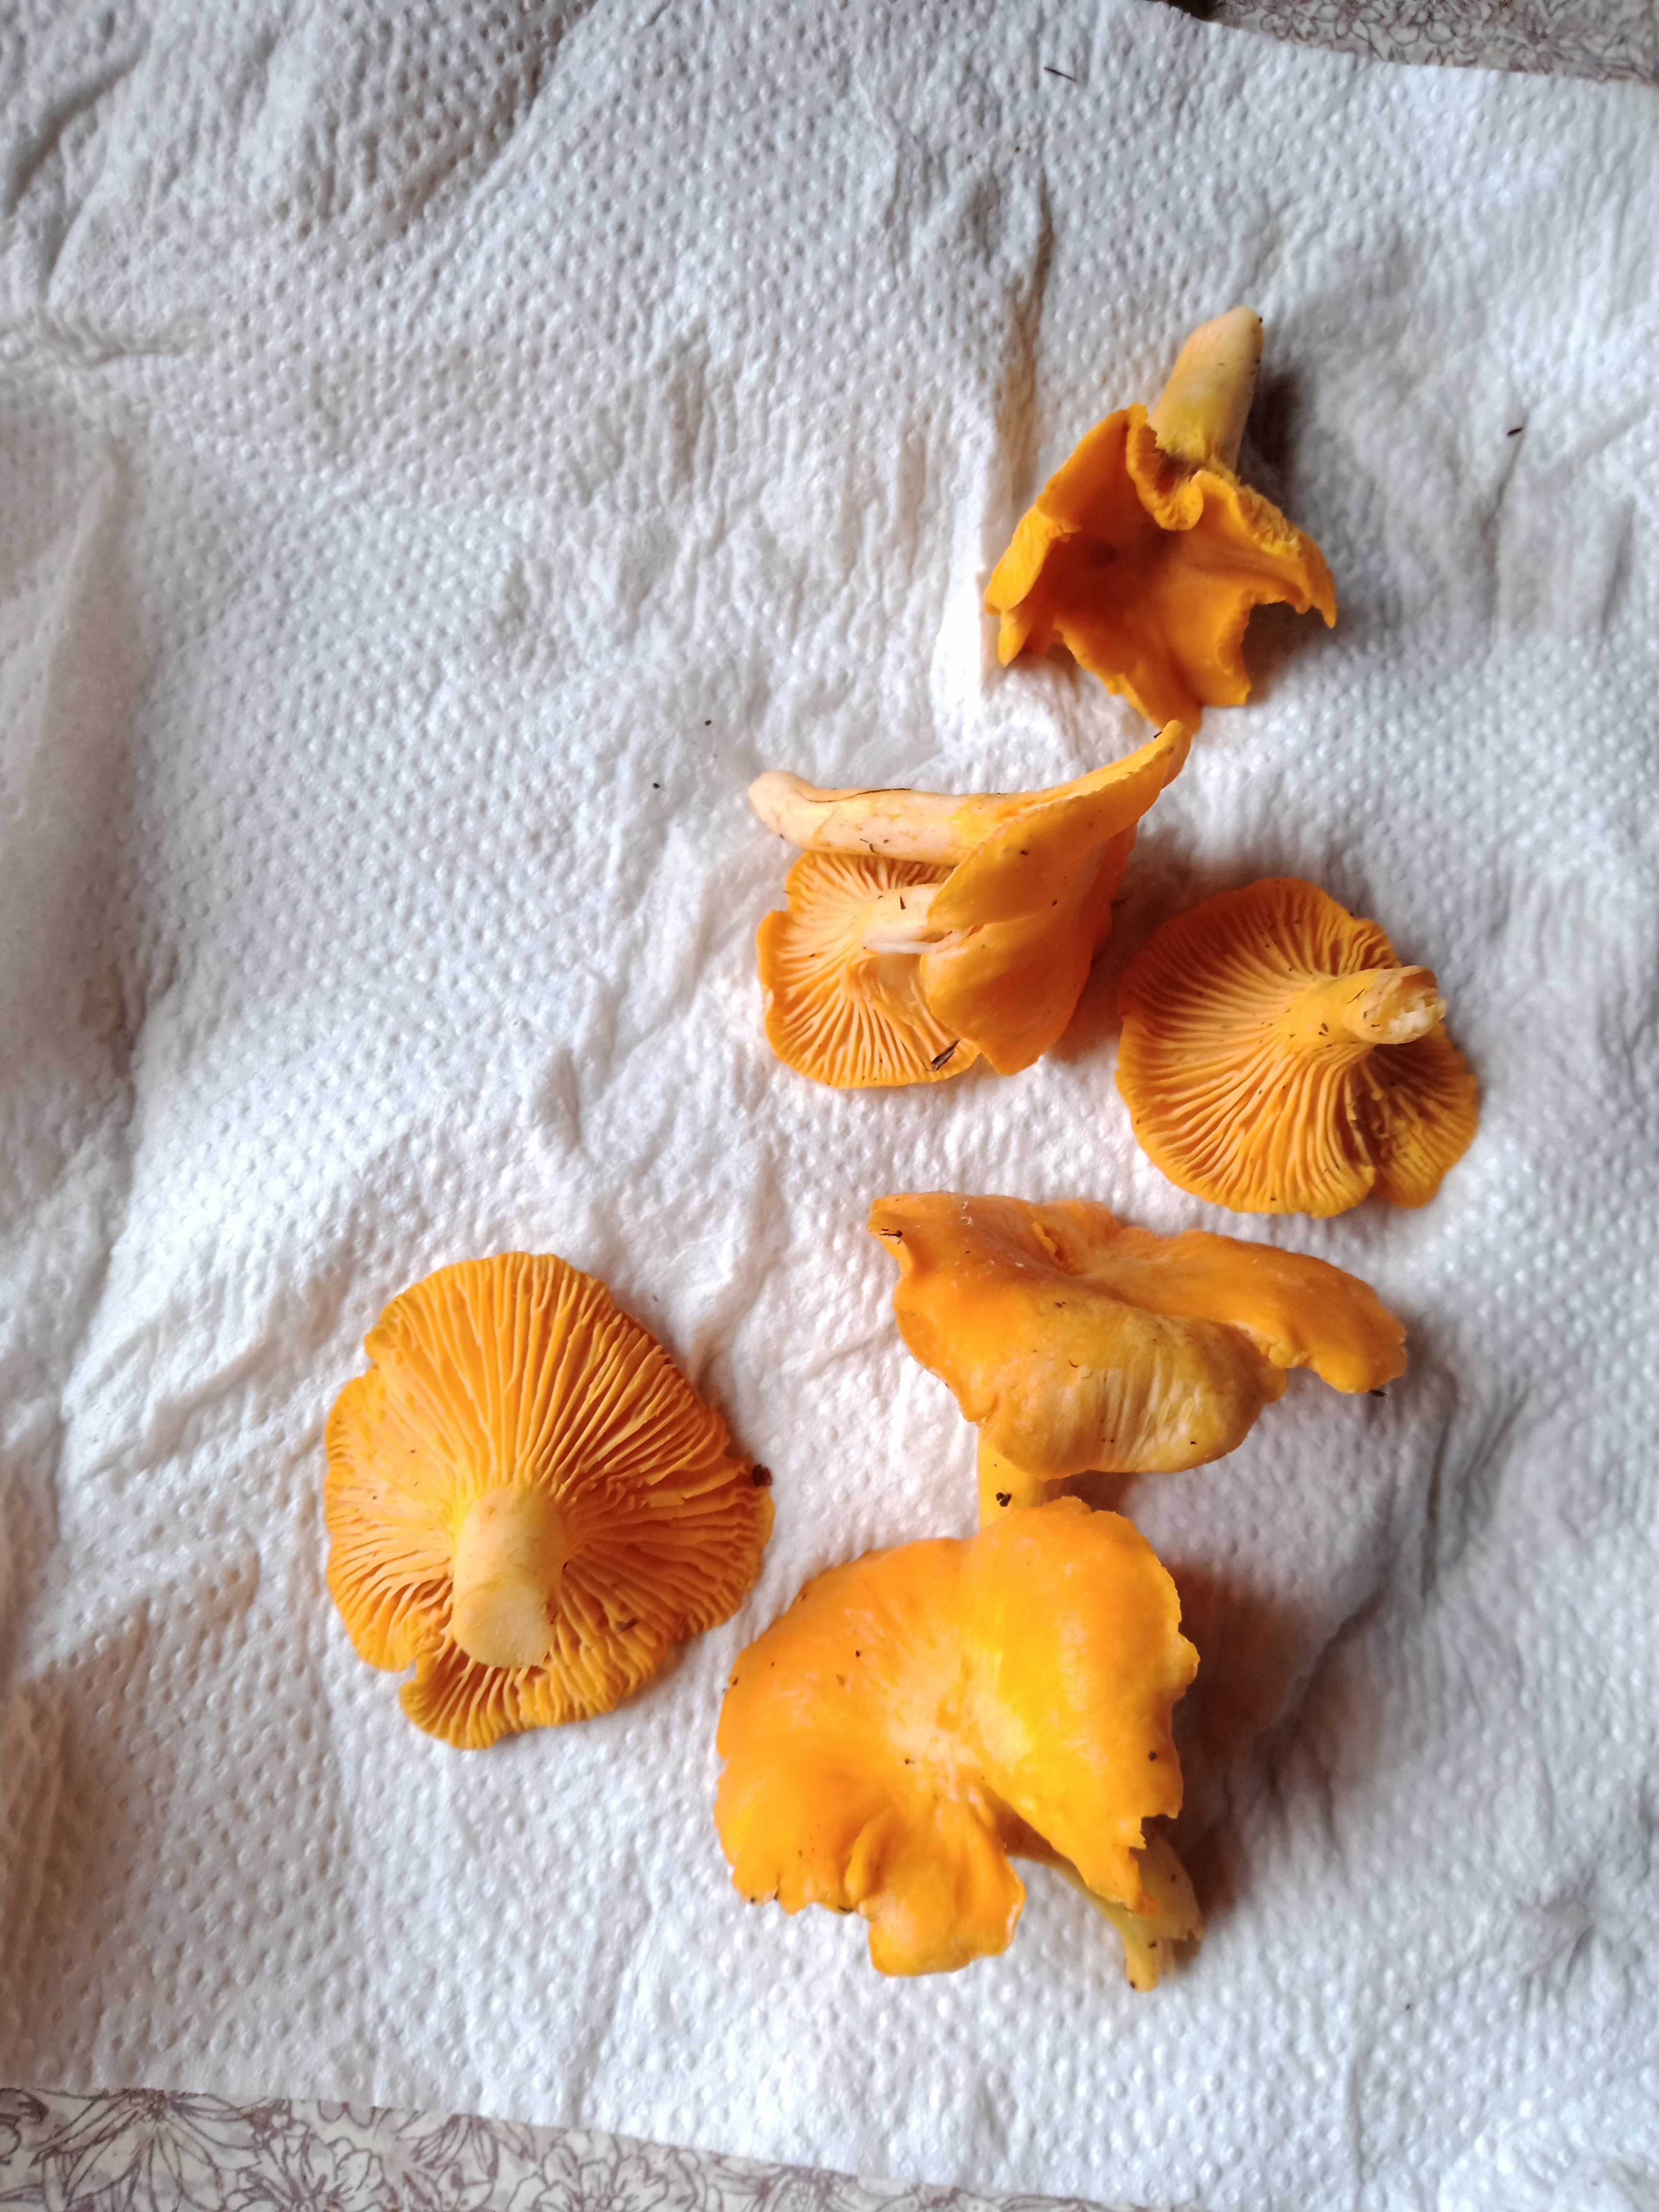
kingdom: Fungi
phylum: Basidiomycota
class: Agaricomycetes
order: Cantharellales
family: Hydnaceae
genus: Cantharellus
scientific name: Cantharellus cibarius
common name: almindelig kantarel
